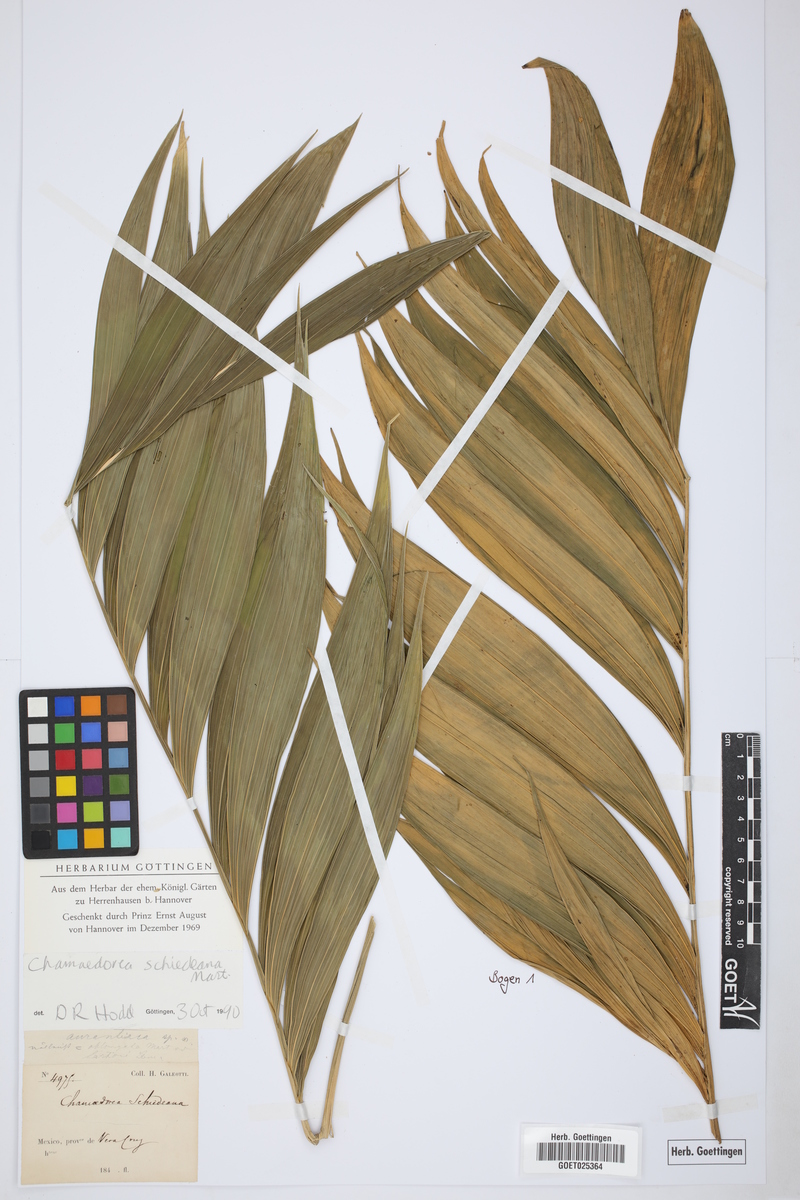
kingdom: Plantae
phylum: Tracheophyta
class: Liliopsida
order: Arecales
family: Arecaceae
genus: Chamaedorea
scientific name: Chamaedorea schiedeana
